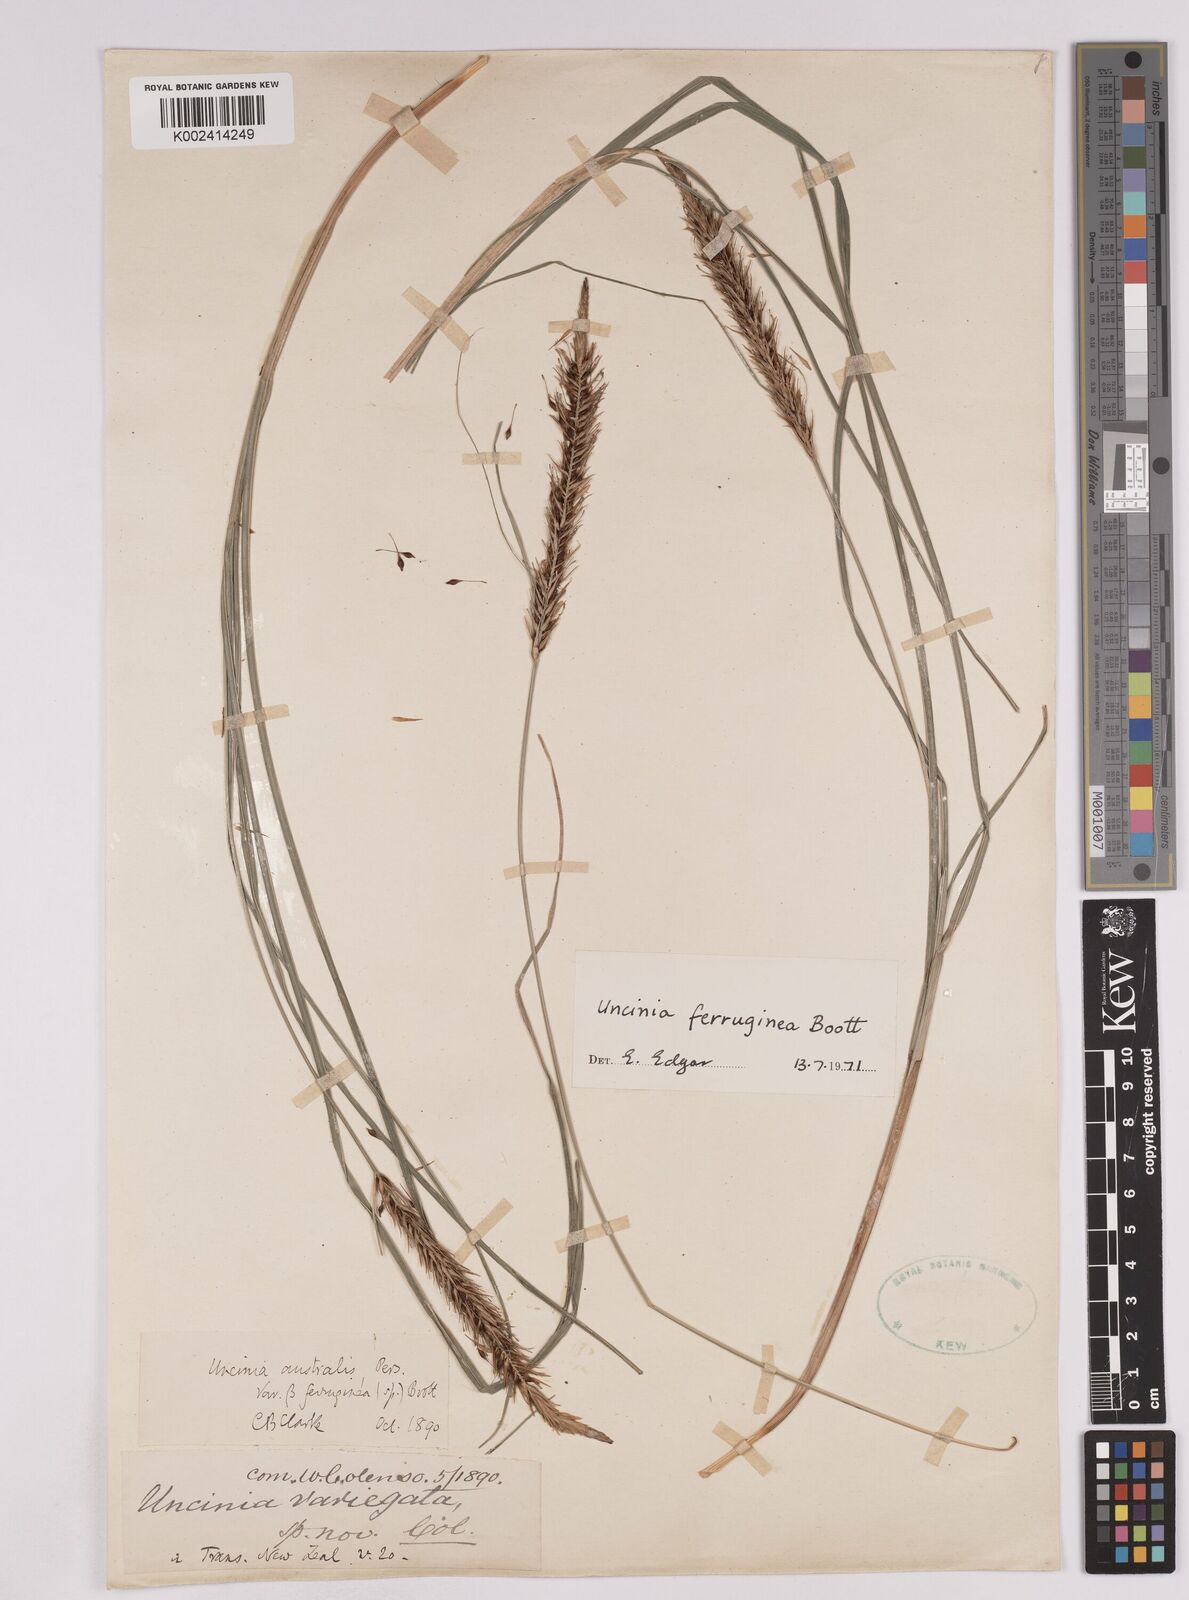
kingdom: Plantae
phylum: Tracheophyta
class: Liliopsida
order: Poales
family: Cyperaceae
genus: Carex
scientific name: Carex uncinata
